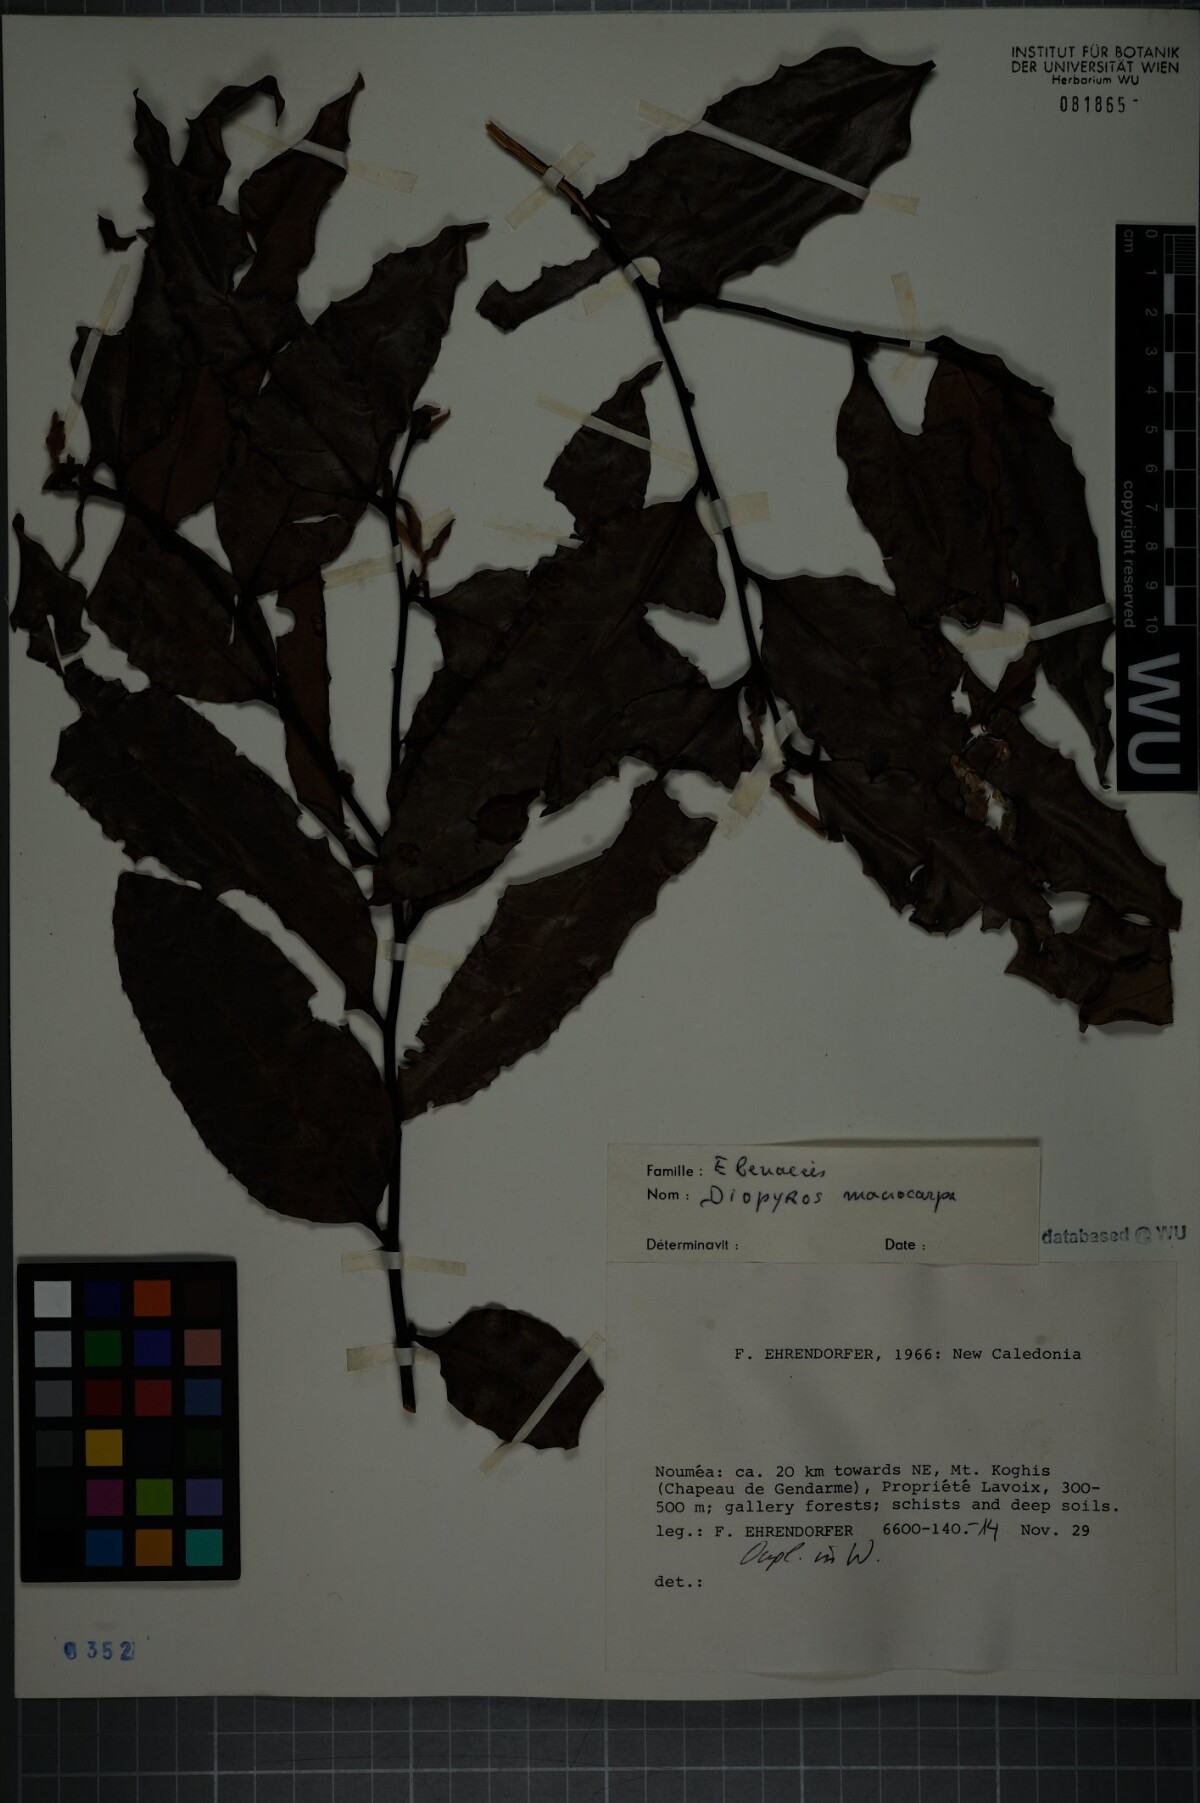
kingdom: Plantae
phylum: Tracheophyta
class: Magnoliopsida
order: Ericales
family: Ebenaceae
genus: Diospyros
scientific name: Diospyros korthalsiana
